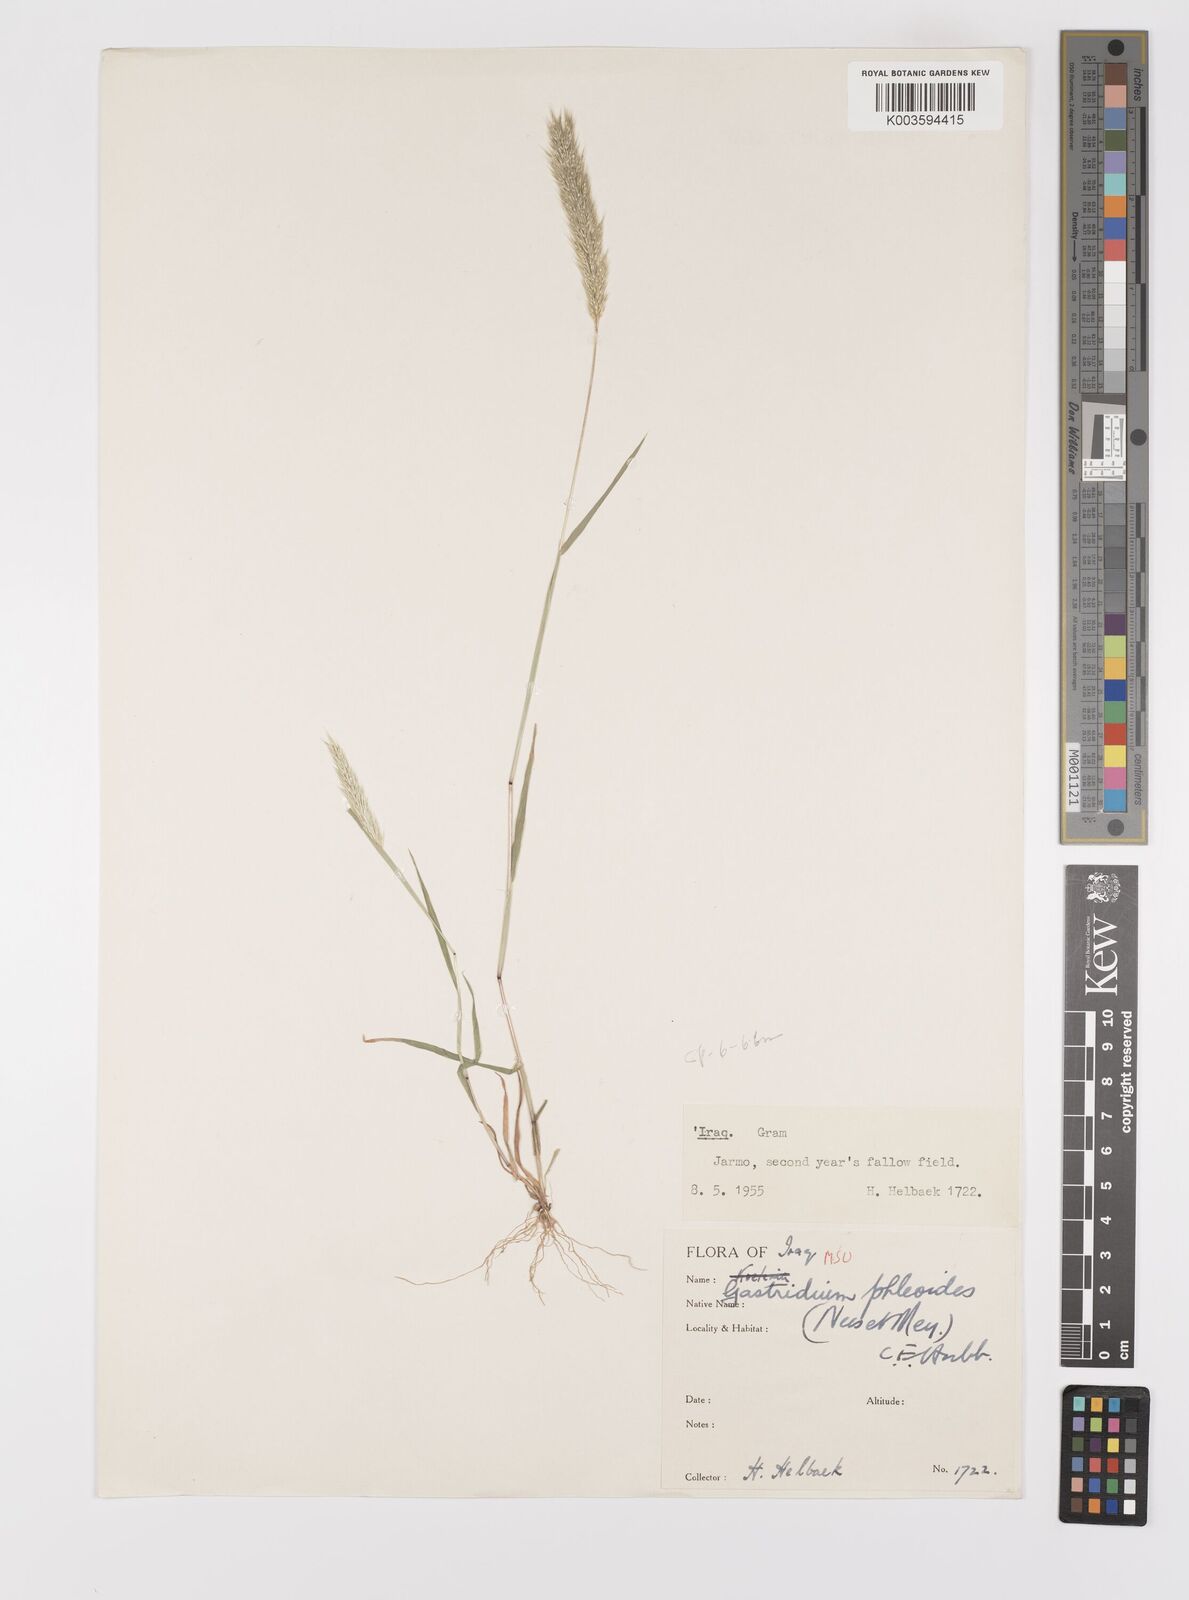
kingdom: Plantae
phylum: Tracheophyta
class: Liliopsida
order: Poales
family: Poaceae
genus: Gastridium
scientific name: Gastridium phleoides
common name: Nit grass
